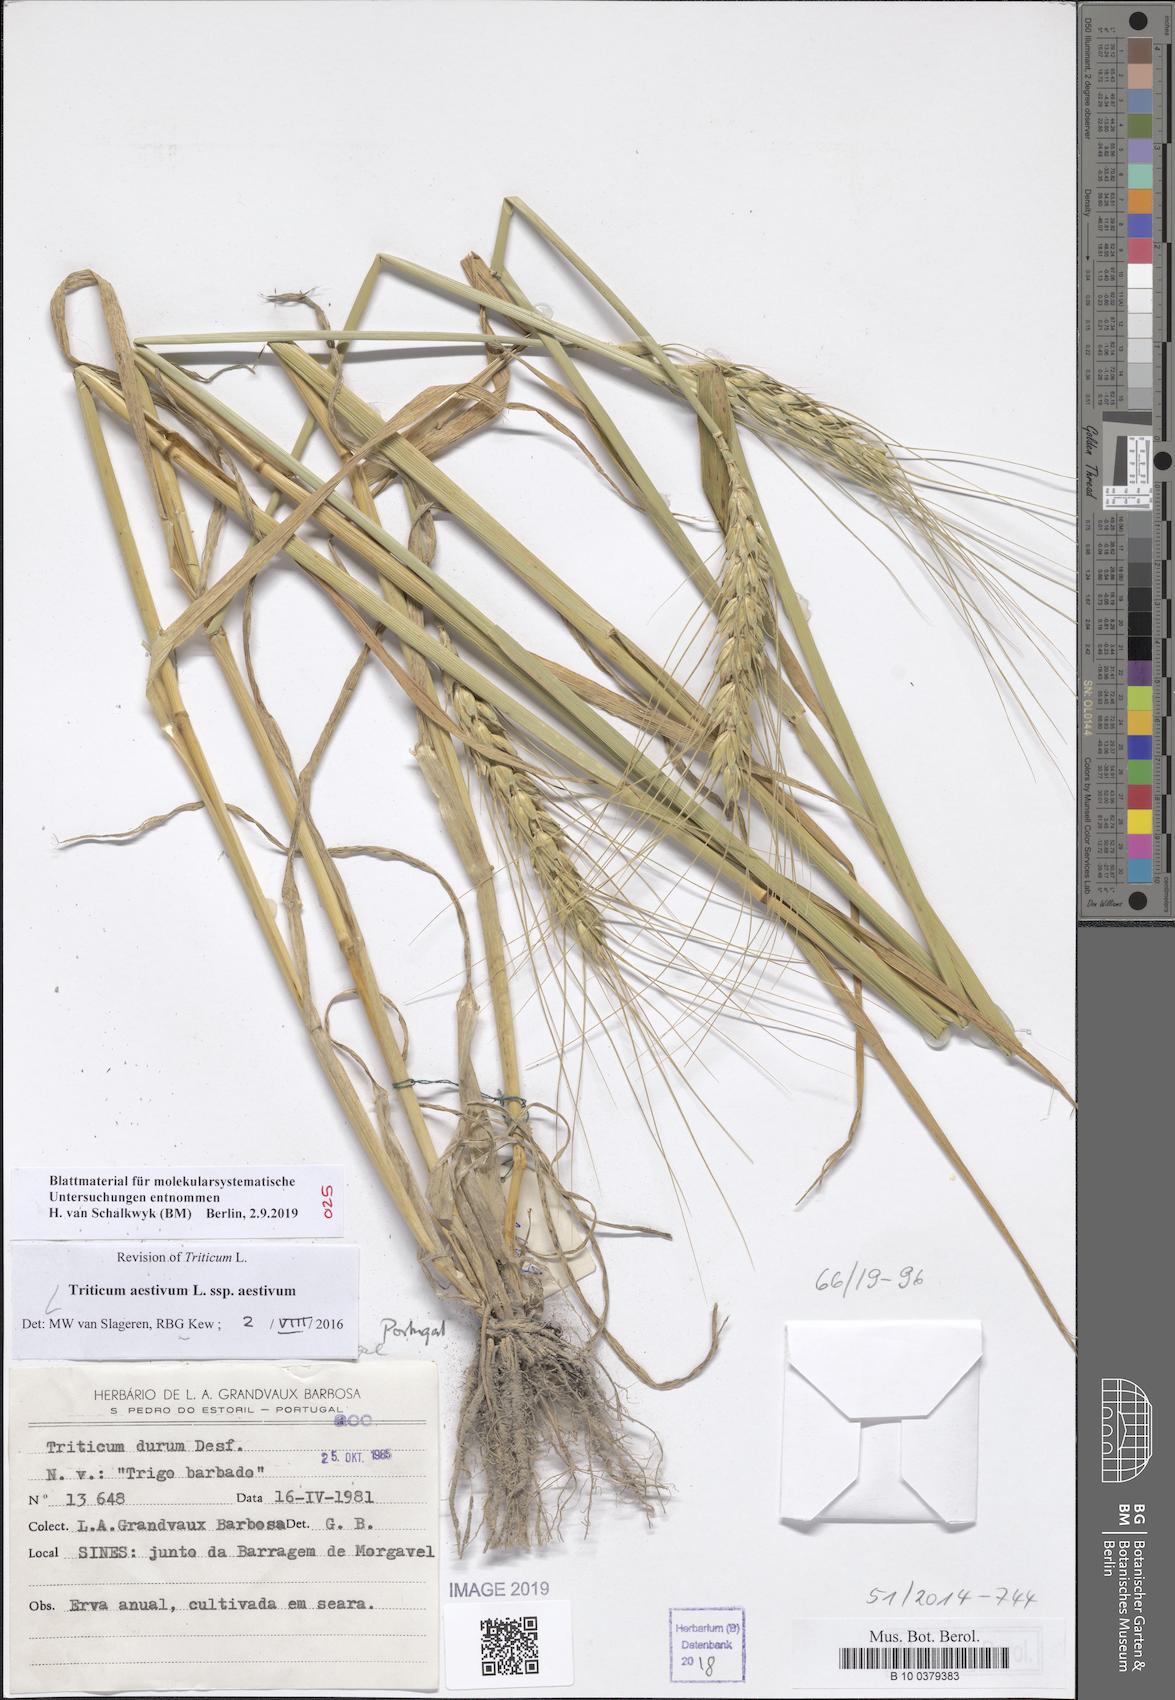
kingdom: Plantae
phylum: Tracheophyta
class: Liliopsida
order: Poales
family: Poaceae
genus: Triticum
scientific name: Triticum aestivum
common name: Common wheat
